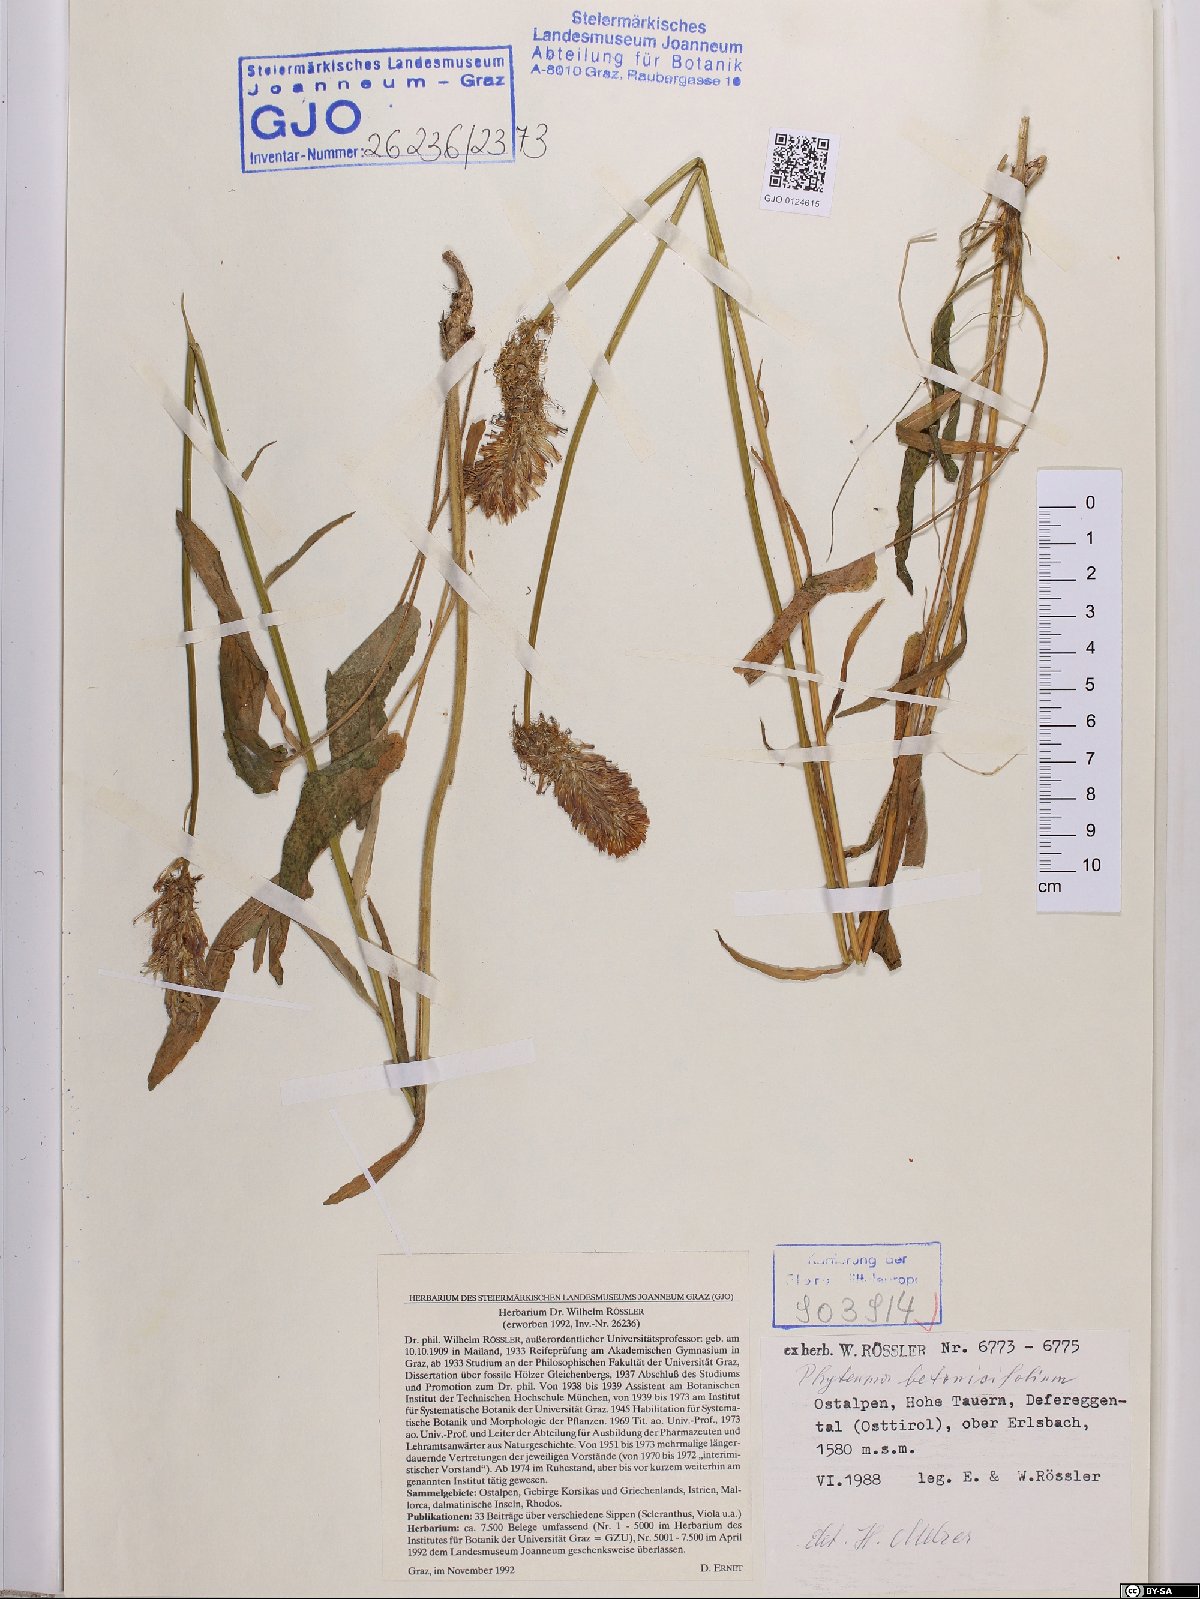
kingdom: Plantae
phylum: Tracheophyta
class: Magnoliopsida
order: Asterales
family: Campanulaceae
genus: Phyteuma
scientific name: Phyteuma betonicifolium
